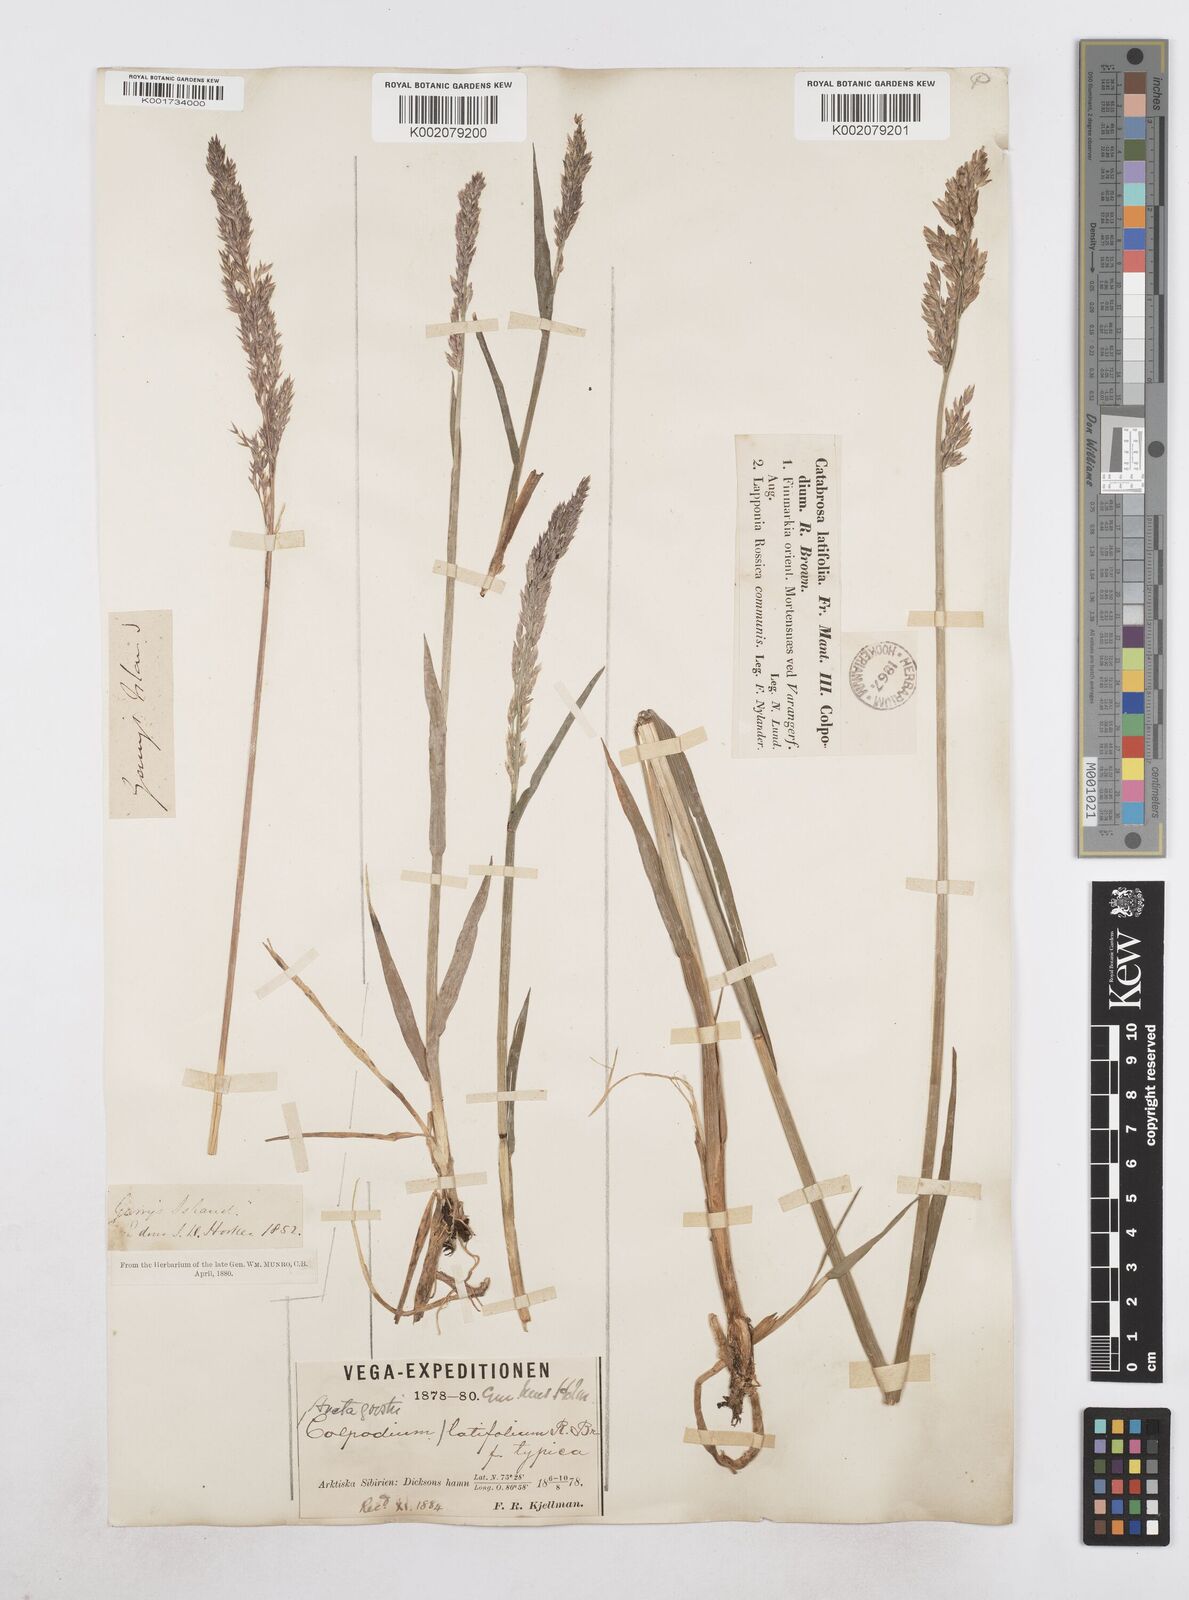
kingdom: Plantae
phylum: Tracheophyta
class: Liliopsida
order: Poales
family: Poaceae
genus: Arctagrostis
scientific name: Arctagrostis latifolia
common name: Arctic grass
